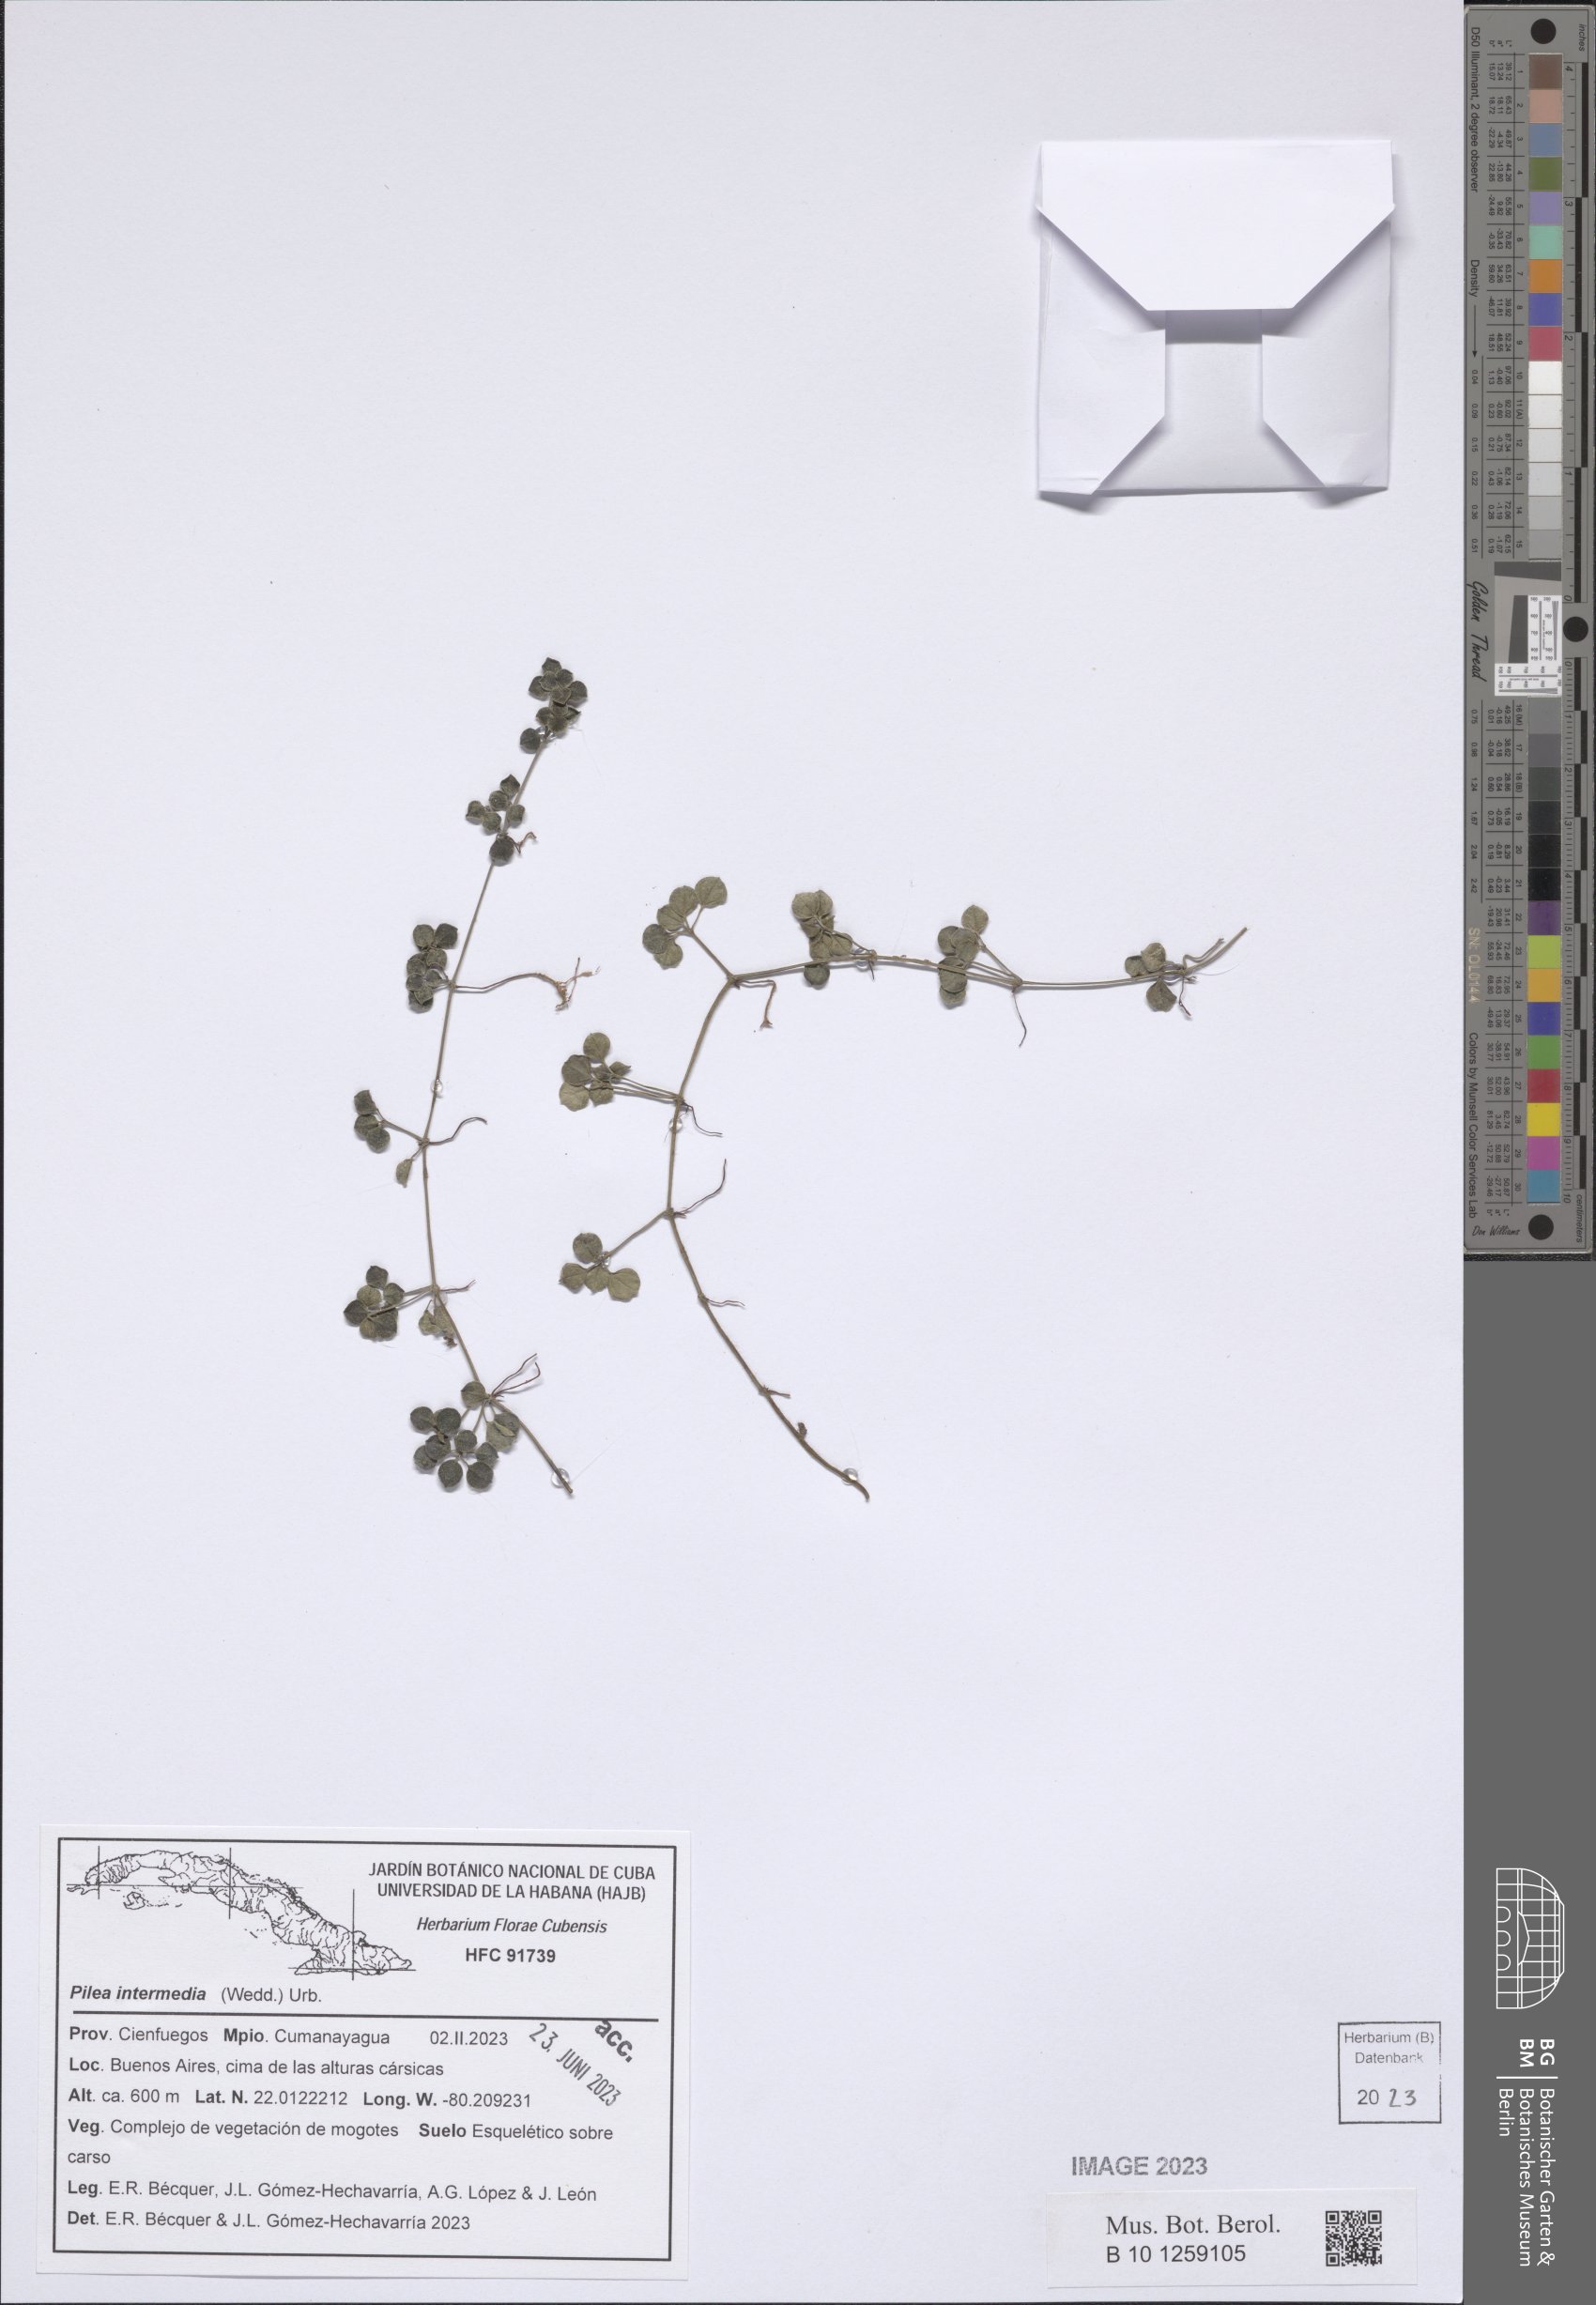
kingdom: Plantae
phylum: Tracheophyta
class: Magnoliopsida
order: Rosales
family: Urticaceae
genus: Pilea
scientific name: Pilea intermedia
